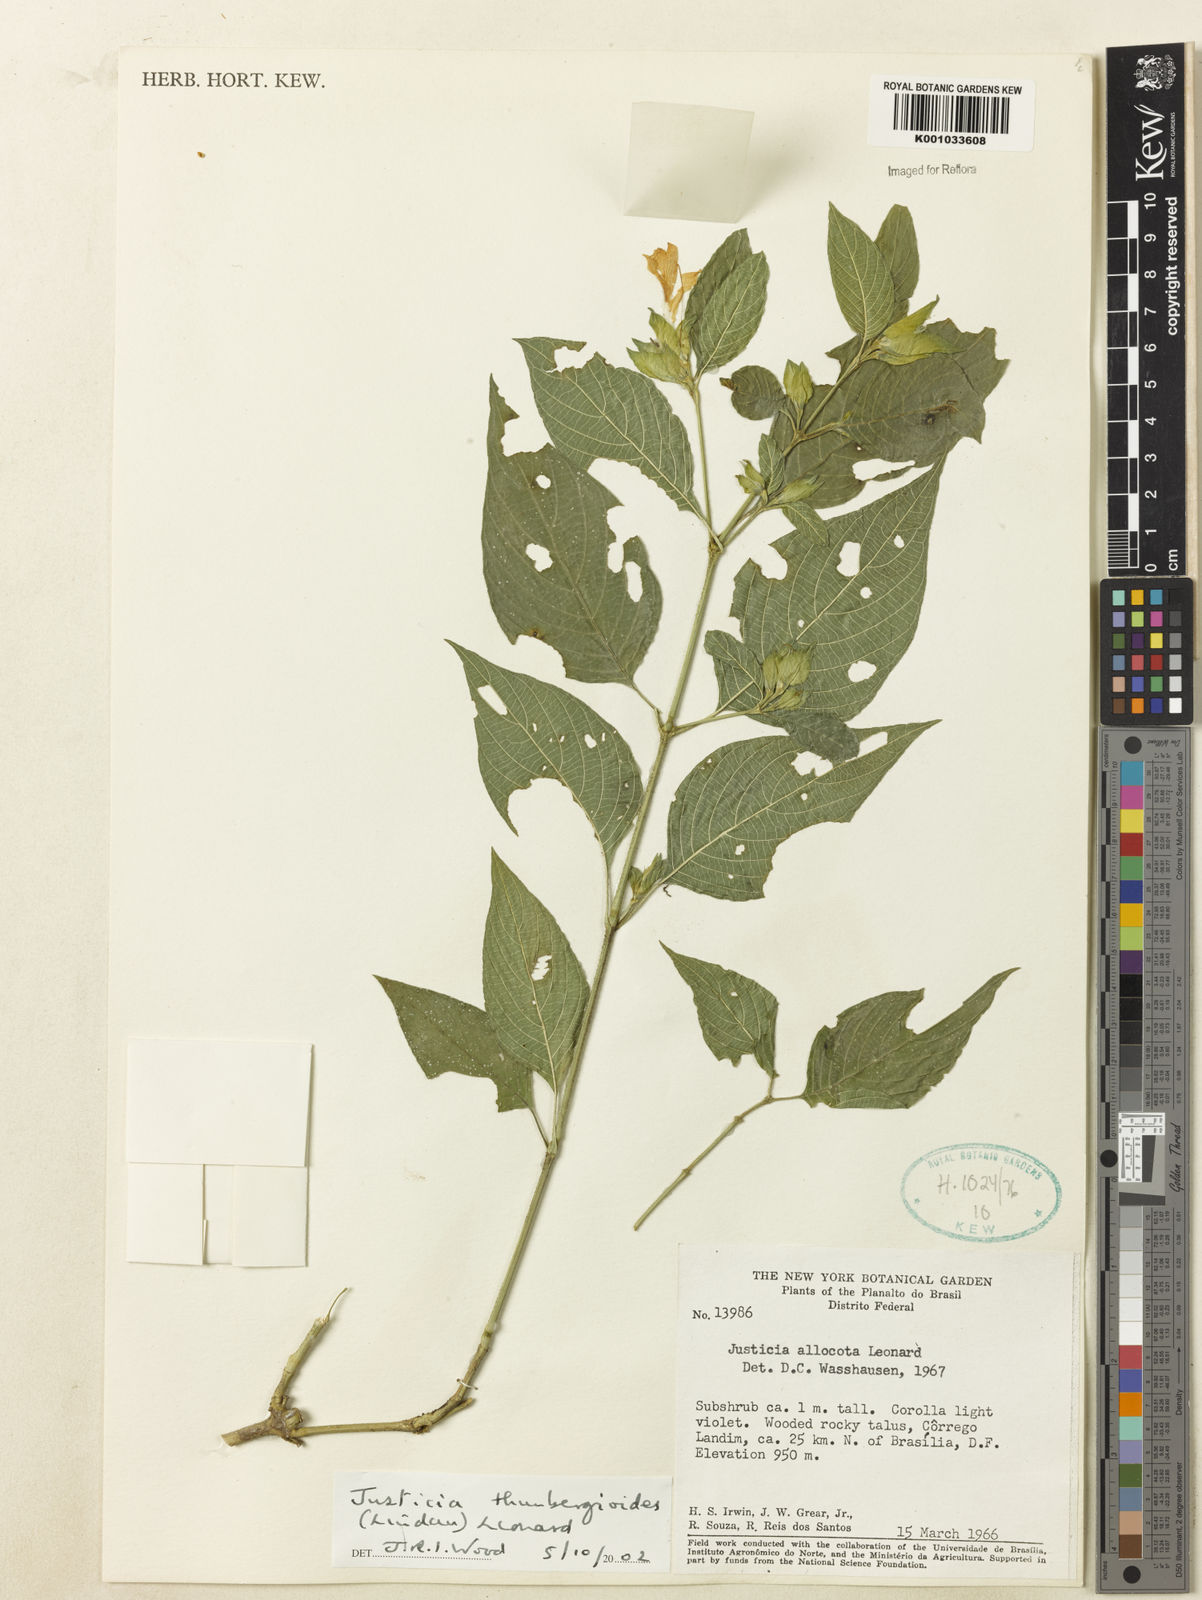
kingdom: Plantae
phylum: Tracheophyta
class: Magnoliopsida
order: Lamiales
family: Acanthaceae
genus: Justicia
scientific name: Justicia thunbergioides
